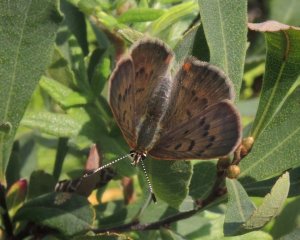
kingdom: Animalia
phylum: Arthropoda
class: Insecta
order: Lepidoptera
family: Lycaenidae
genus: Epidemia
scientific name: Epidemia dorcas
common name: Dorcas Copper
